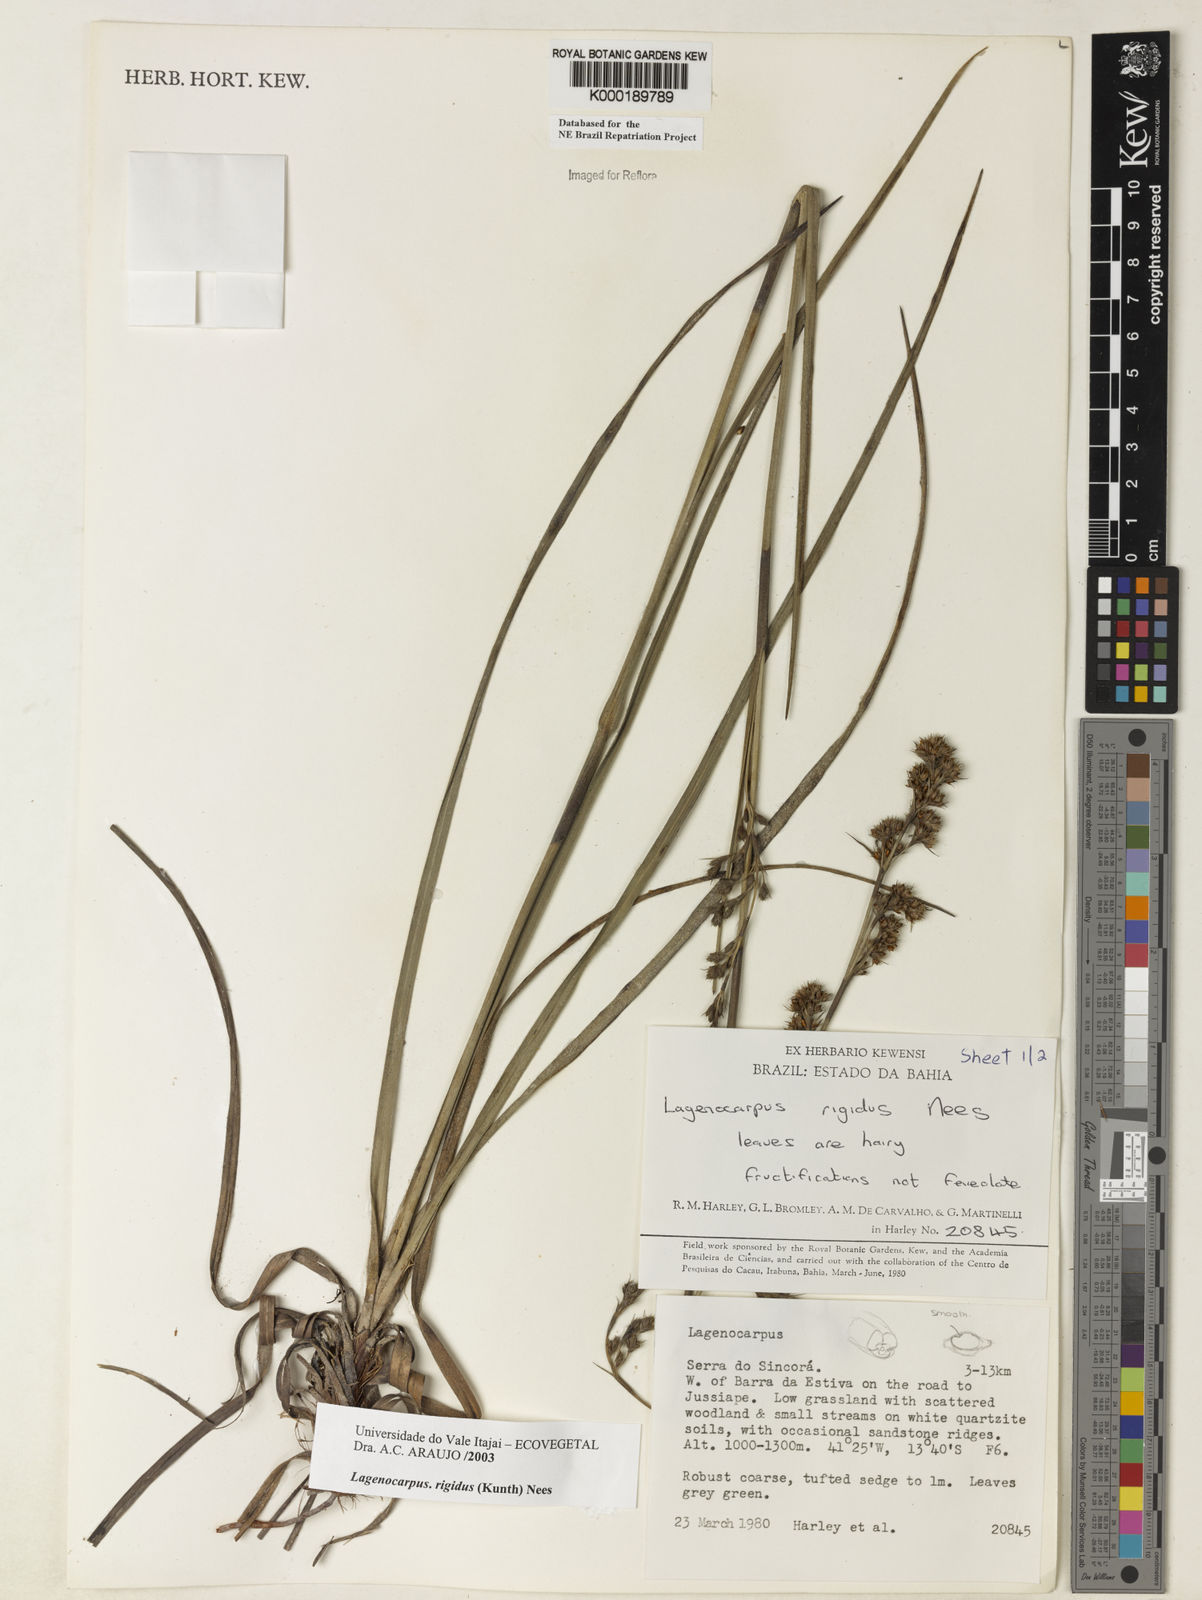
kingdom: Plantae
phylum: Tracheophyta
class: Liliopsida
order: Poales
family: Cyperaceae
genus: Lagenocarpus
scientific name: Lagenocarpus rigidus
